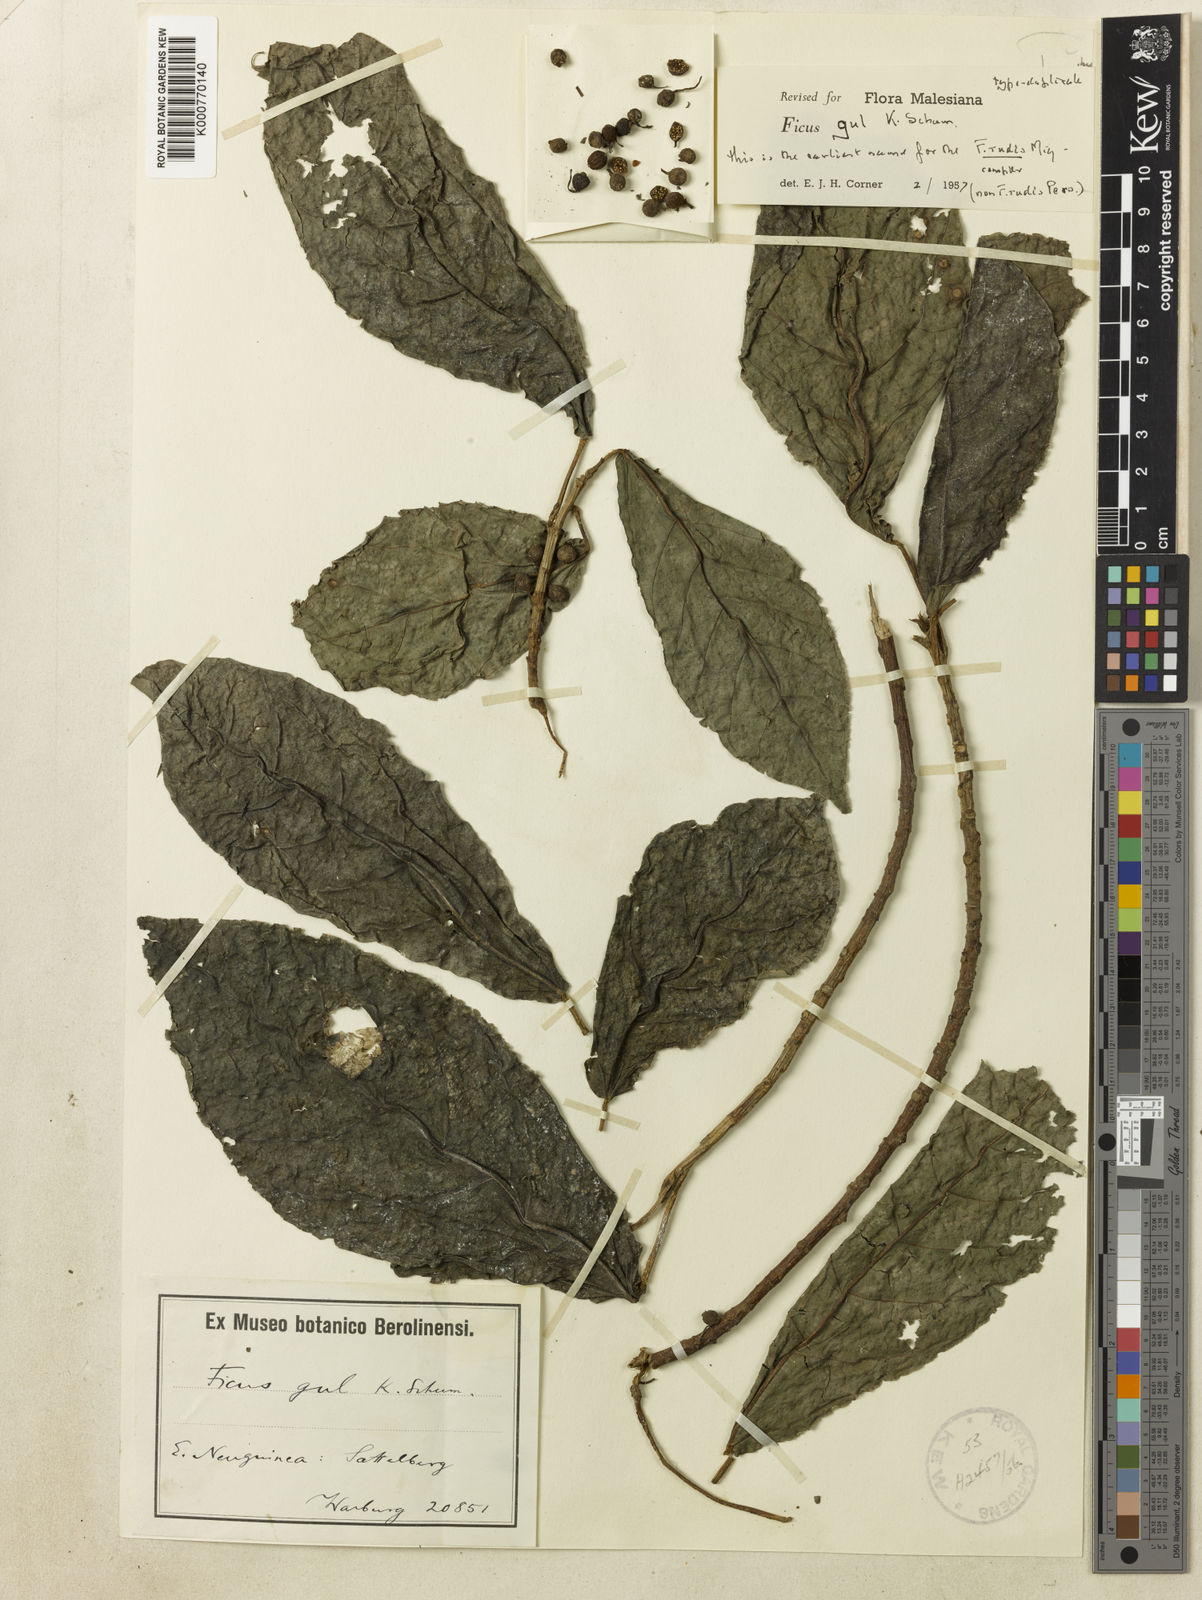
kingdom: Plantae
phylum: Tracheophyta
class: Magnoliopsida
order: Rosales
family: Moraceae
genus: Ficus
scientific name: Ficus gul
